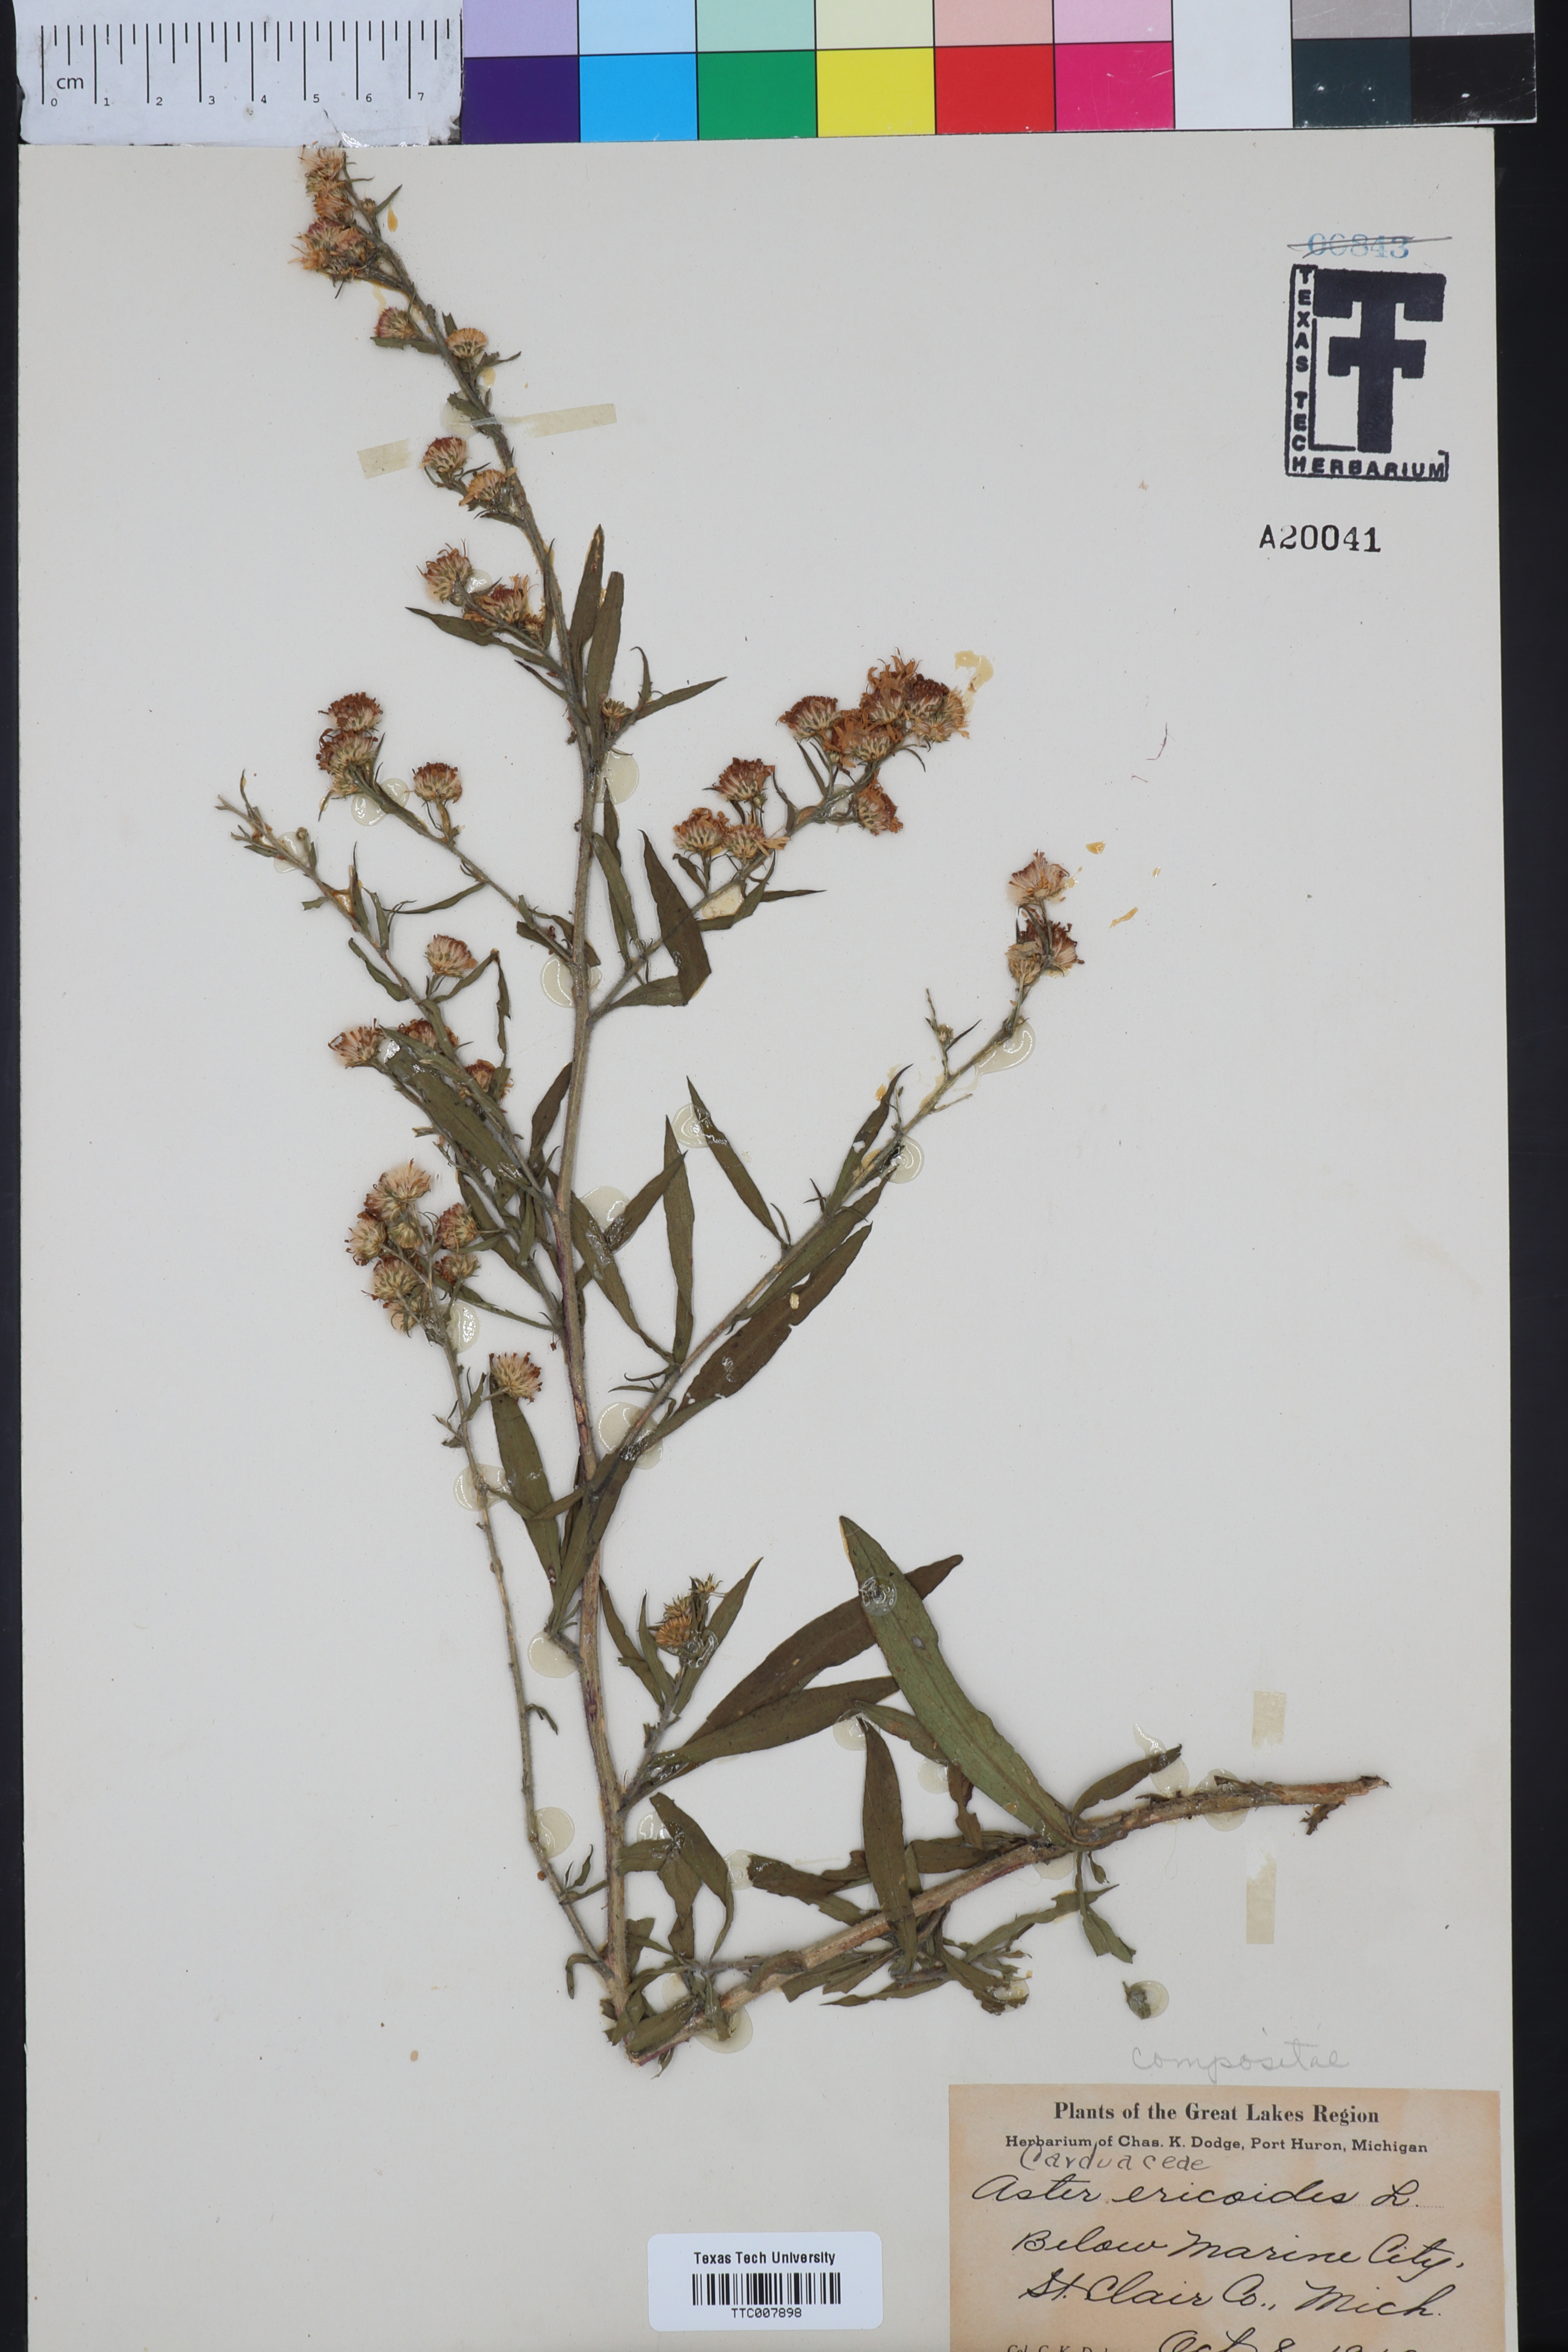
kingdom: Plantae
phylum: Tracheophyta
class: Magnoliopsida
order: Asterales
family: Asteraceae
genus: Symphyotrichum
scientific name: Symphyotrichum ericoides
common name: Heath aster
